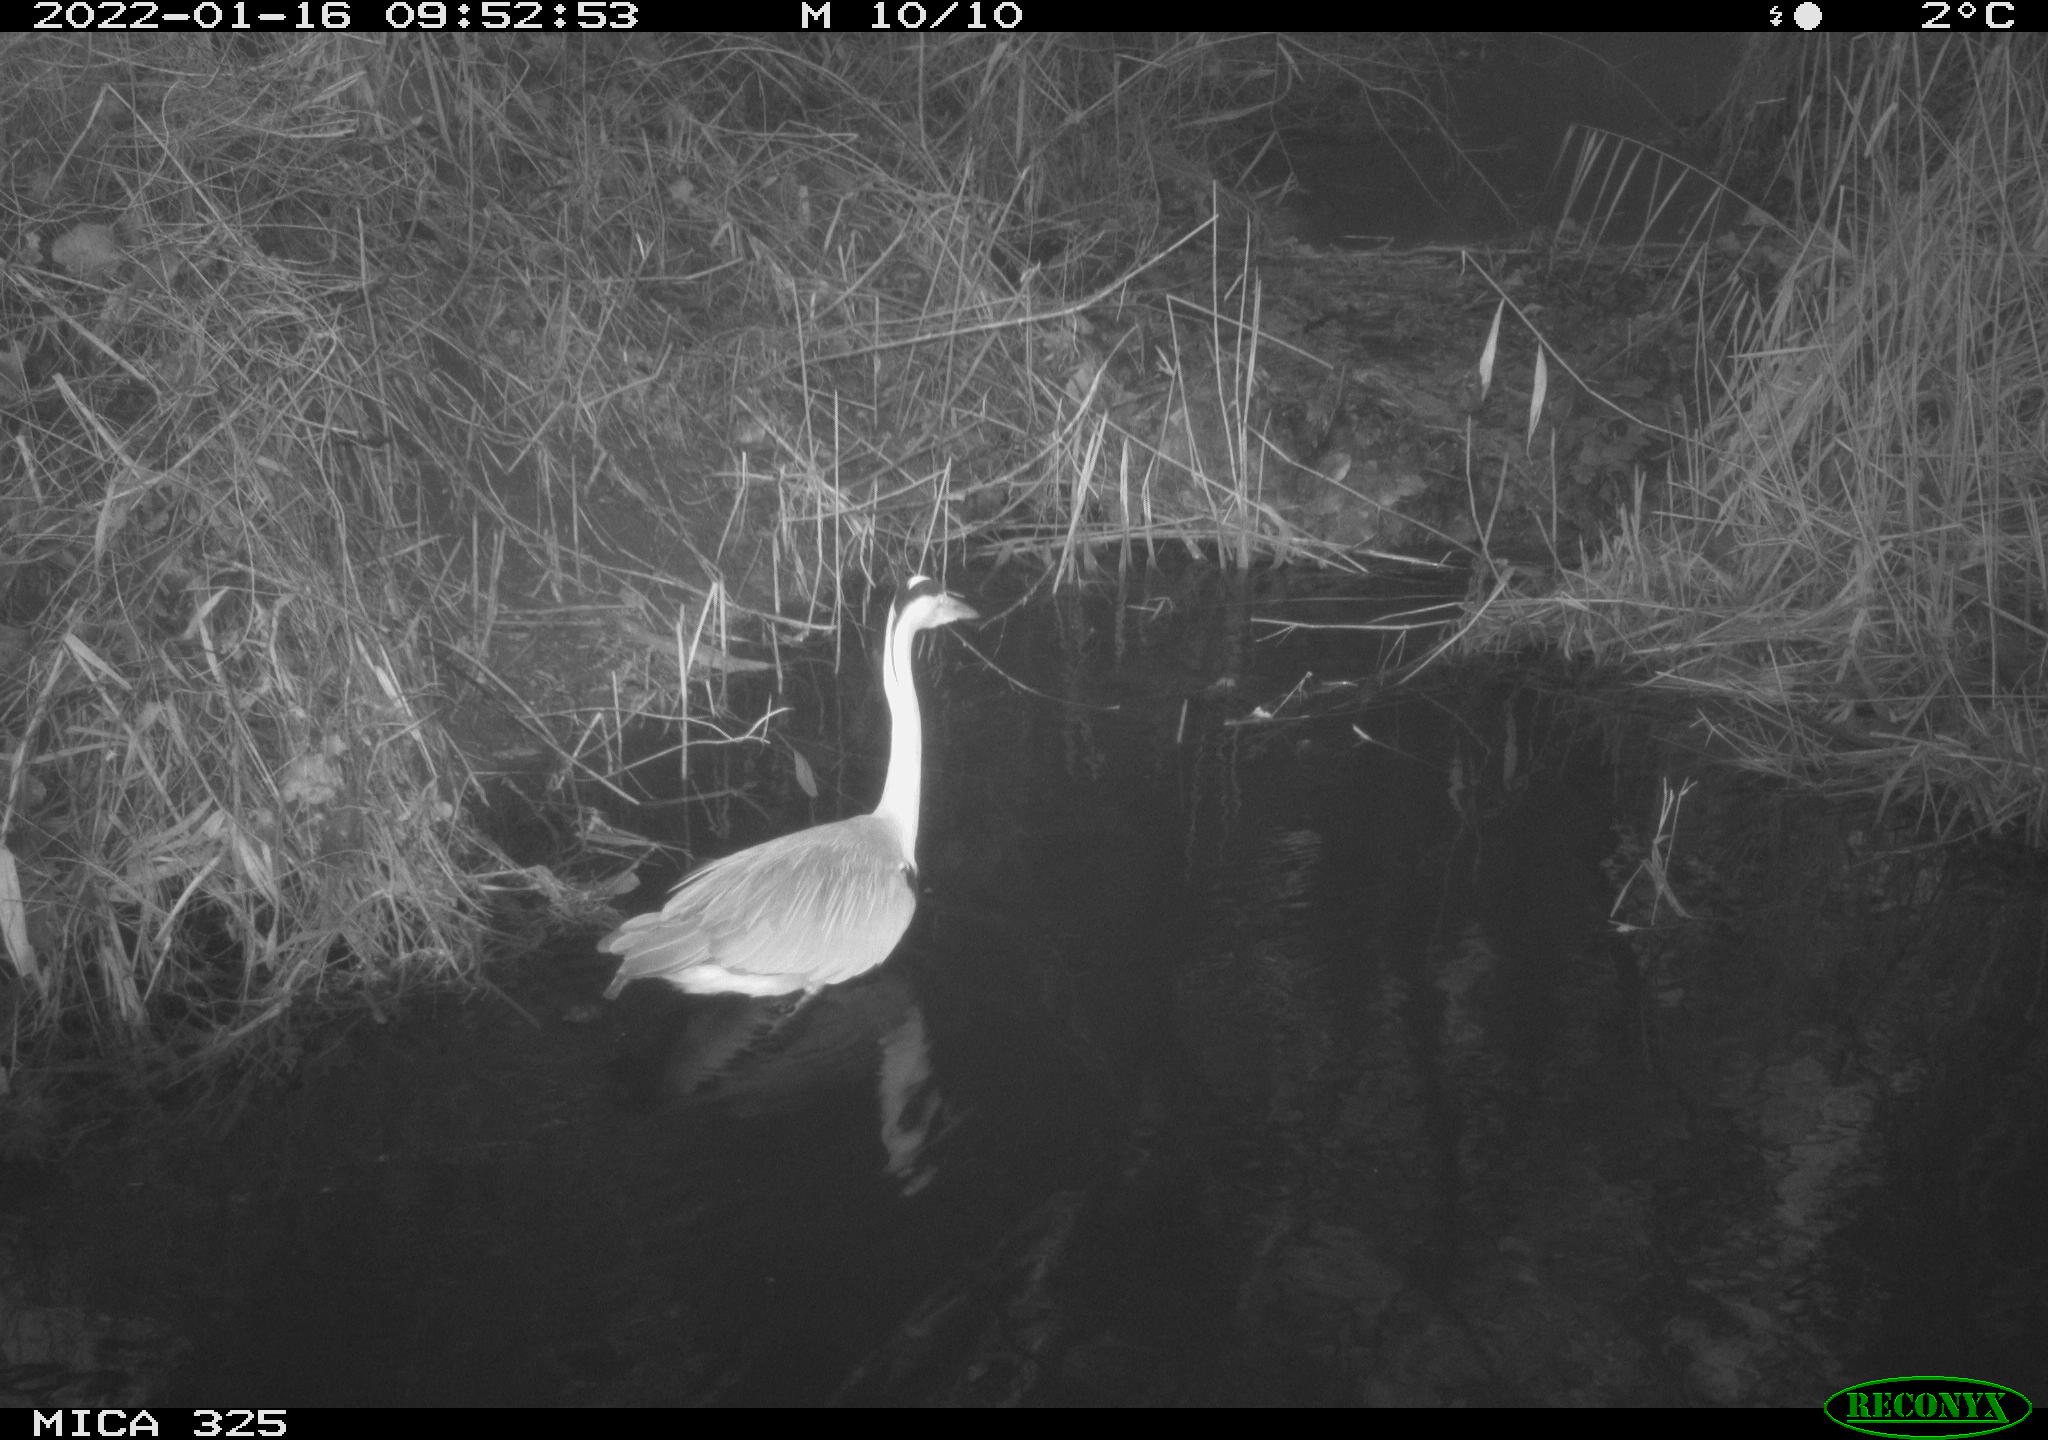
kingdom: Animalia
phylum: Chordata
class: Aves
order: Pelecaniformes
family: Ardeidae
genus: Ardea
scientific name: Ardea cinerea
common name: Grey heron
